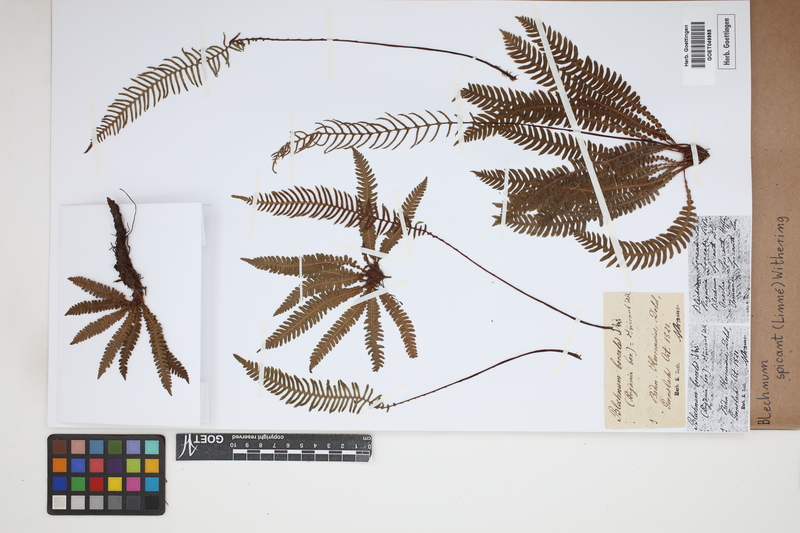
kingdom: Plantae
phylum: Tracheophyta
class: Polypodiopsida
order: Polypodiales
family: Blechnaceae
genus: Struthiopteris
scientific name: Struthiopteris spicant
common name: Deer fern
